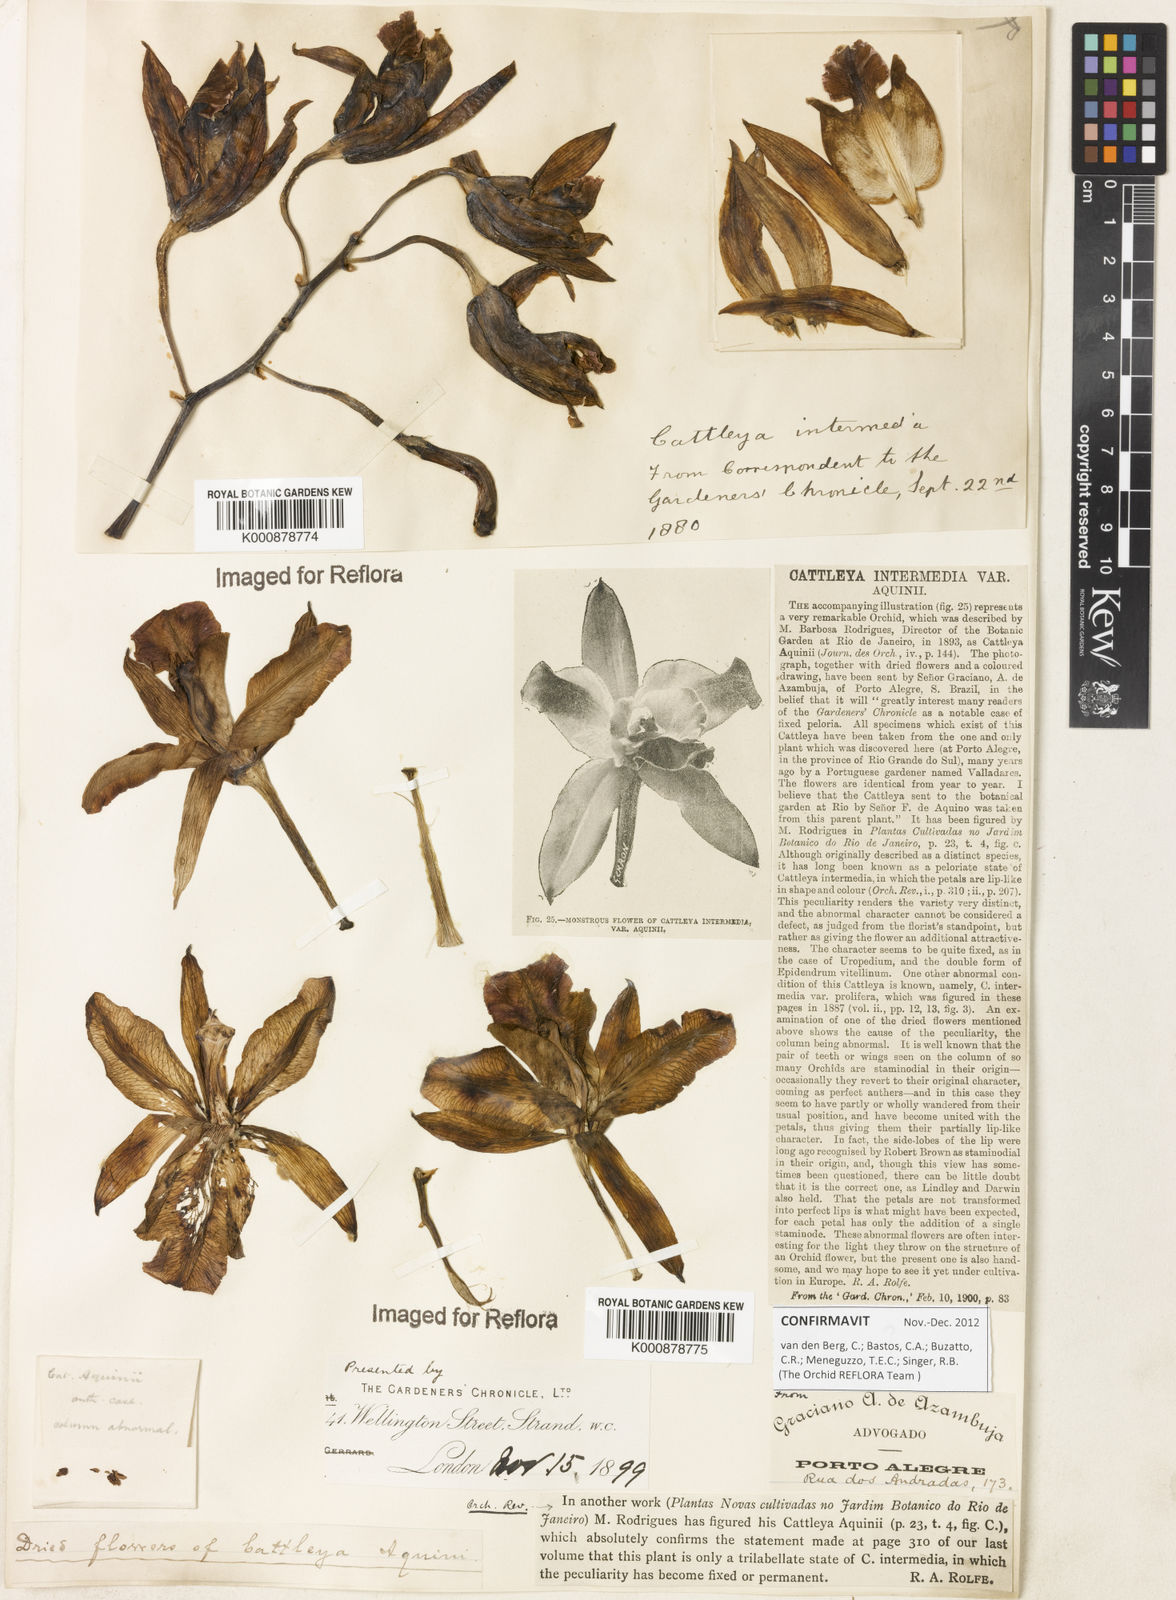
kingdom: Plantae
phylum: Tracheophyta
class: Liliopsida
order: Asparagales
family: Orchidaceae
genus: Cattleya
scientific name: Cattleya intermedia
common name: Intermediate cattleya
